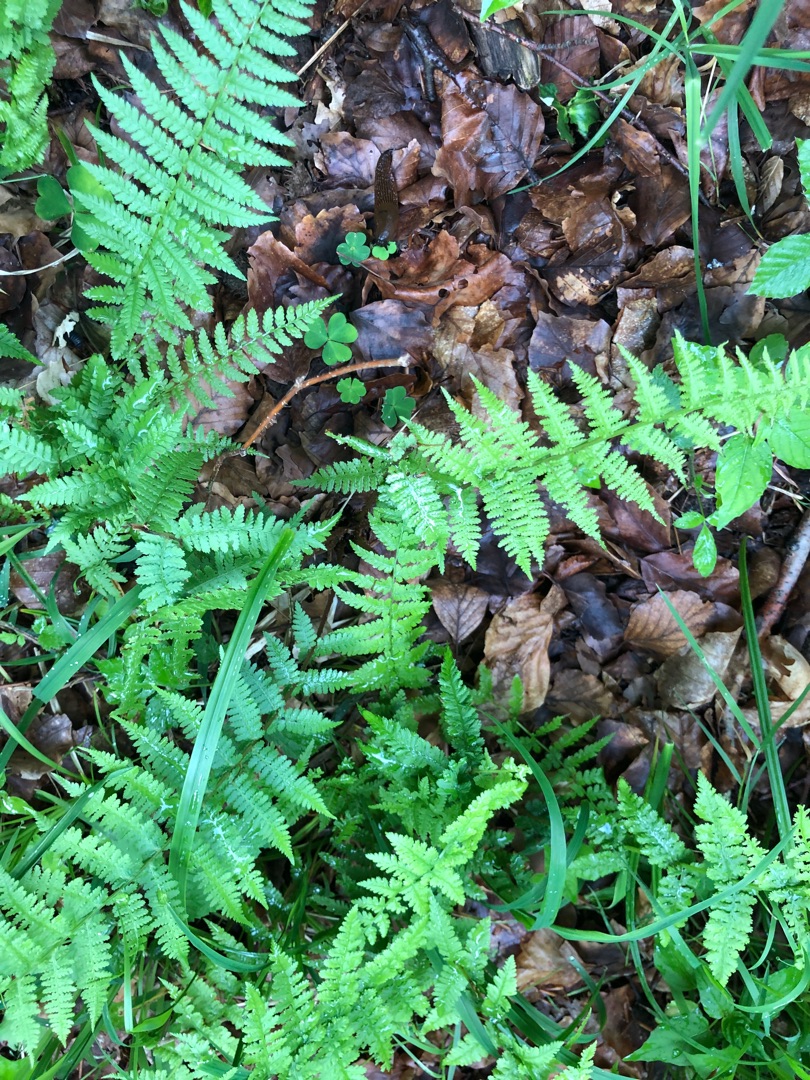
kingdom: Plantae
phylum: Tracheophyta
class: Polypodiopsida
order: Polypodiales
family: Athyriaceae
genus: Athyrium
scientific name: Athyrium filix-femina
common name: Fjerbregne
